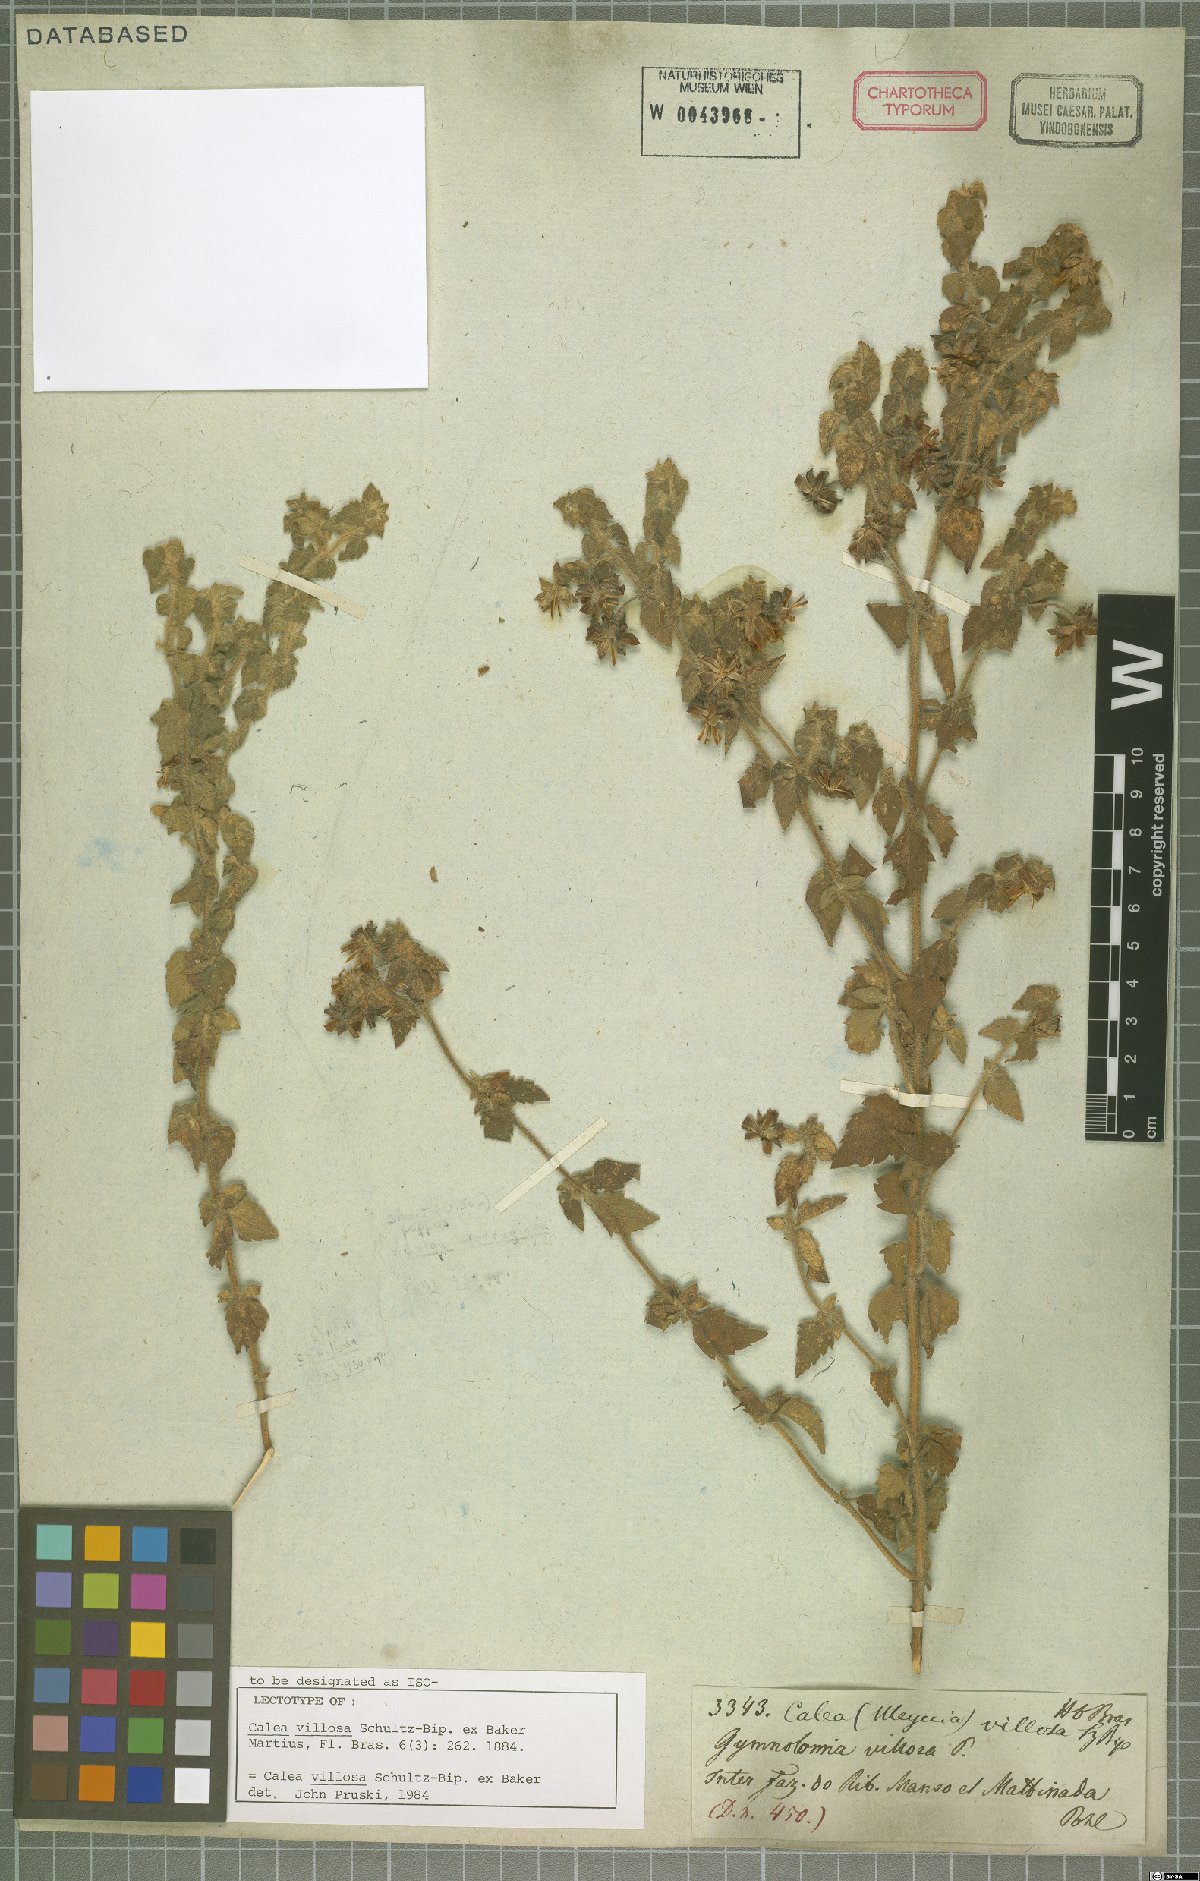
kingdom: Plantae
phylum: Tracheophyta
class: Magnoliopsida
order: Asterales
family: Asteraceae
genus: Calea
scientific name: Calea villosa
